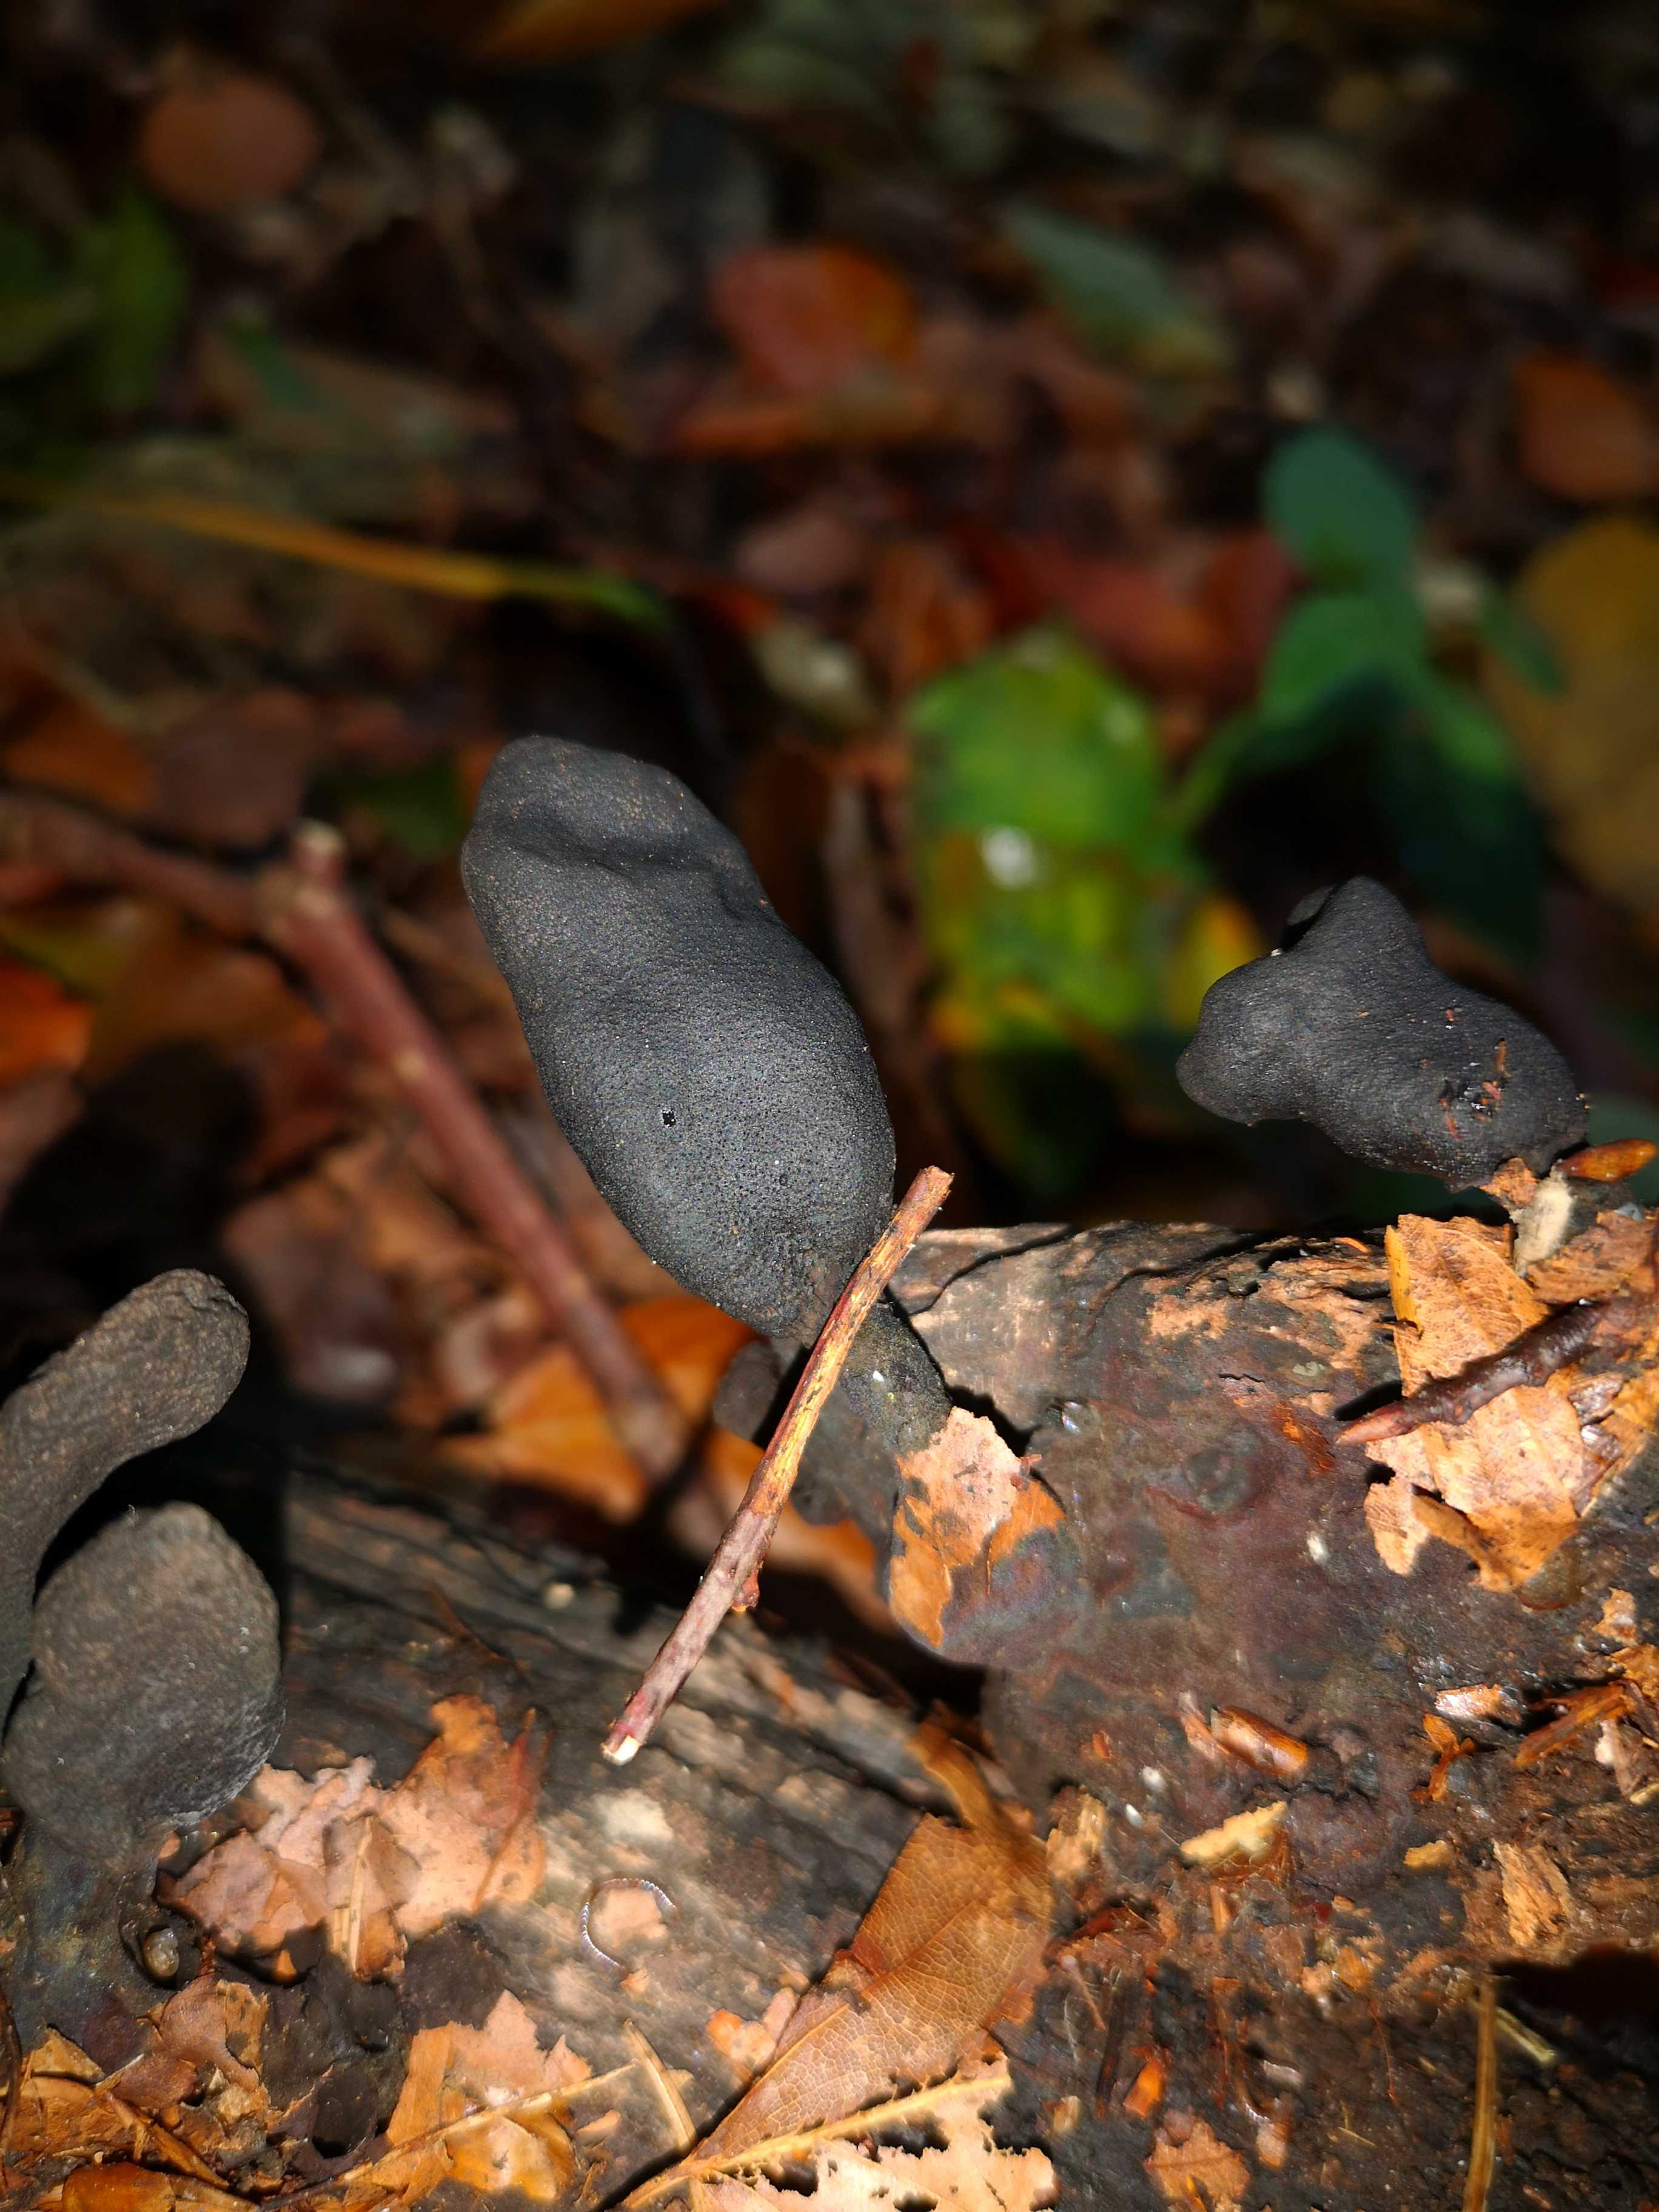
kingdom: Fungi
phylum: Ascomycota
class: Sordariomycetes
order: Xylariales
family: Xylariaceae
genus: Xylaria
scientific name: Xylaria
